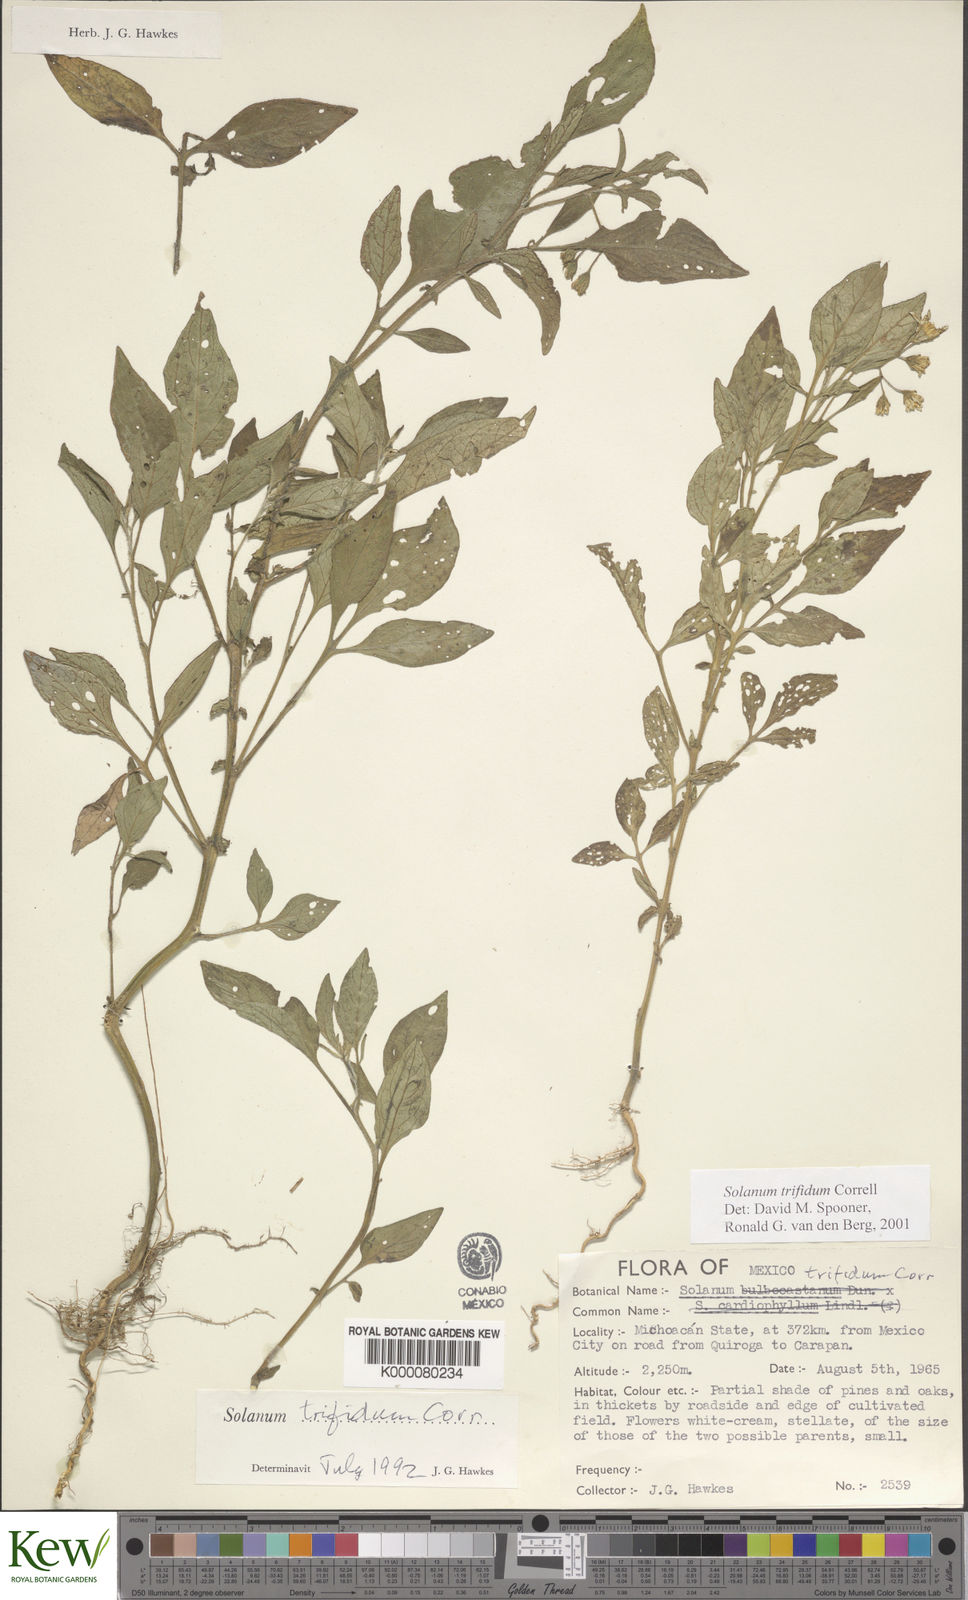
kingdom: Plantae
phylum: Tracheophyta
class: Magnoliopsida
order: Solanales
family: Solanaceae
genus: Solanum
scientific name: Solanum trifidum
